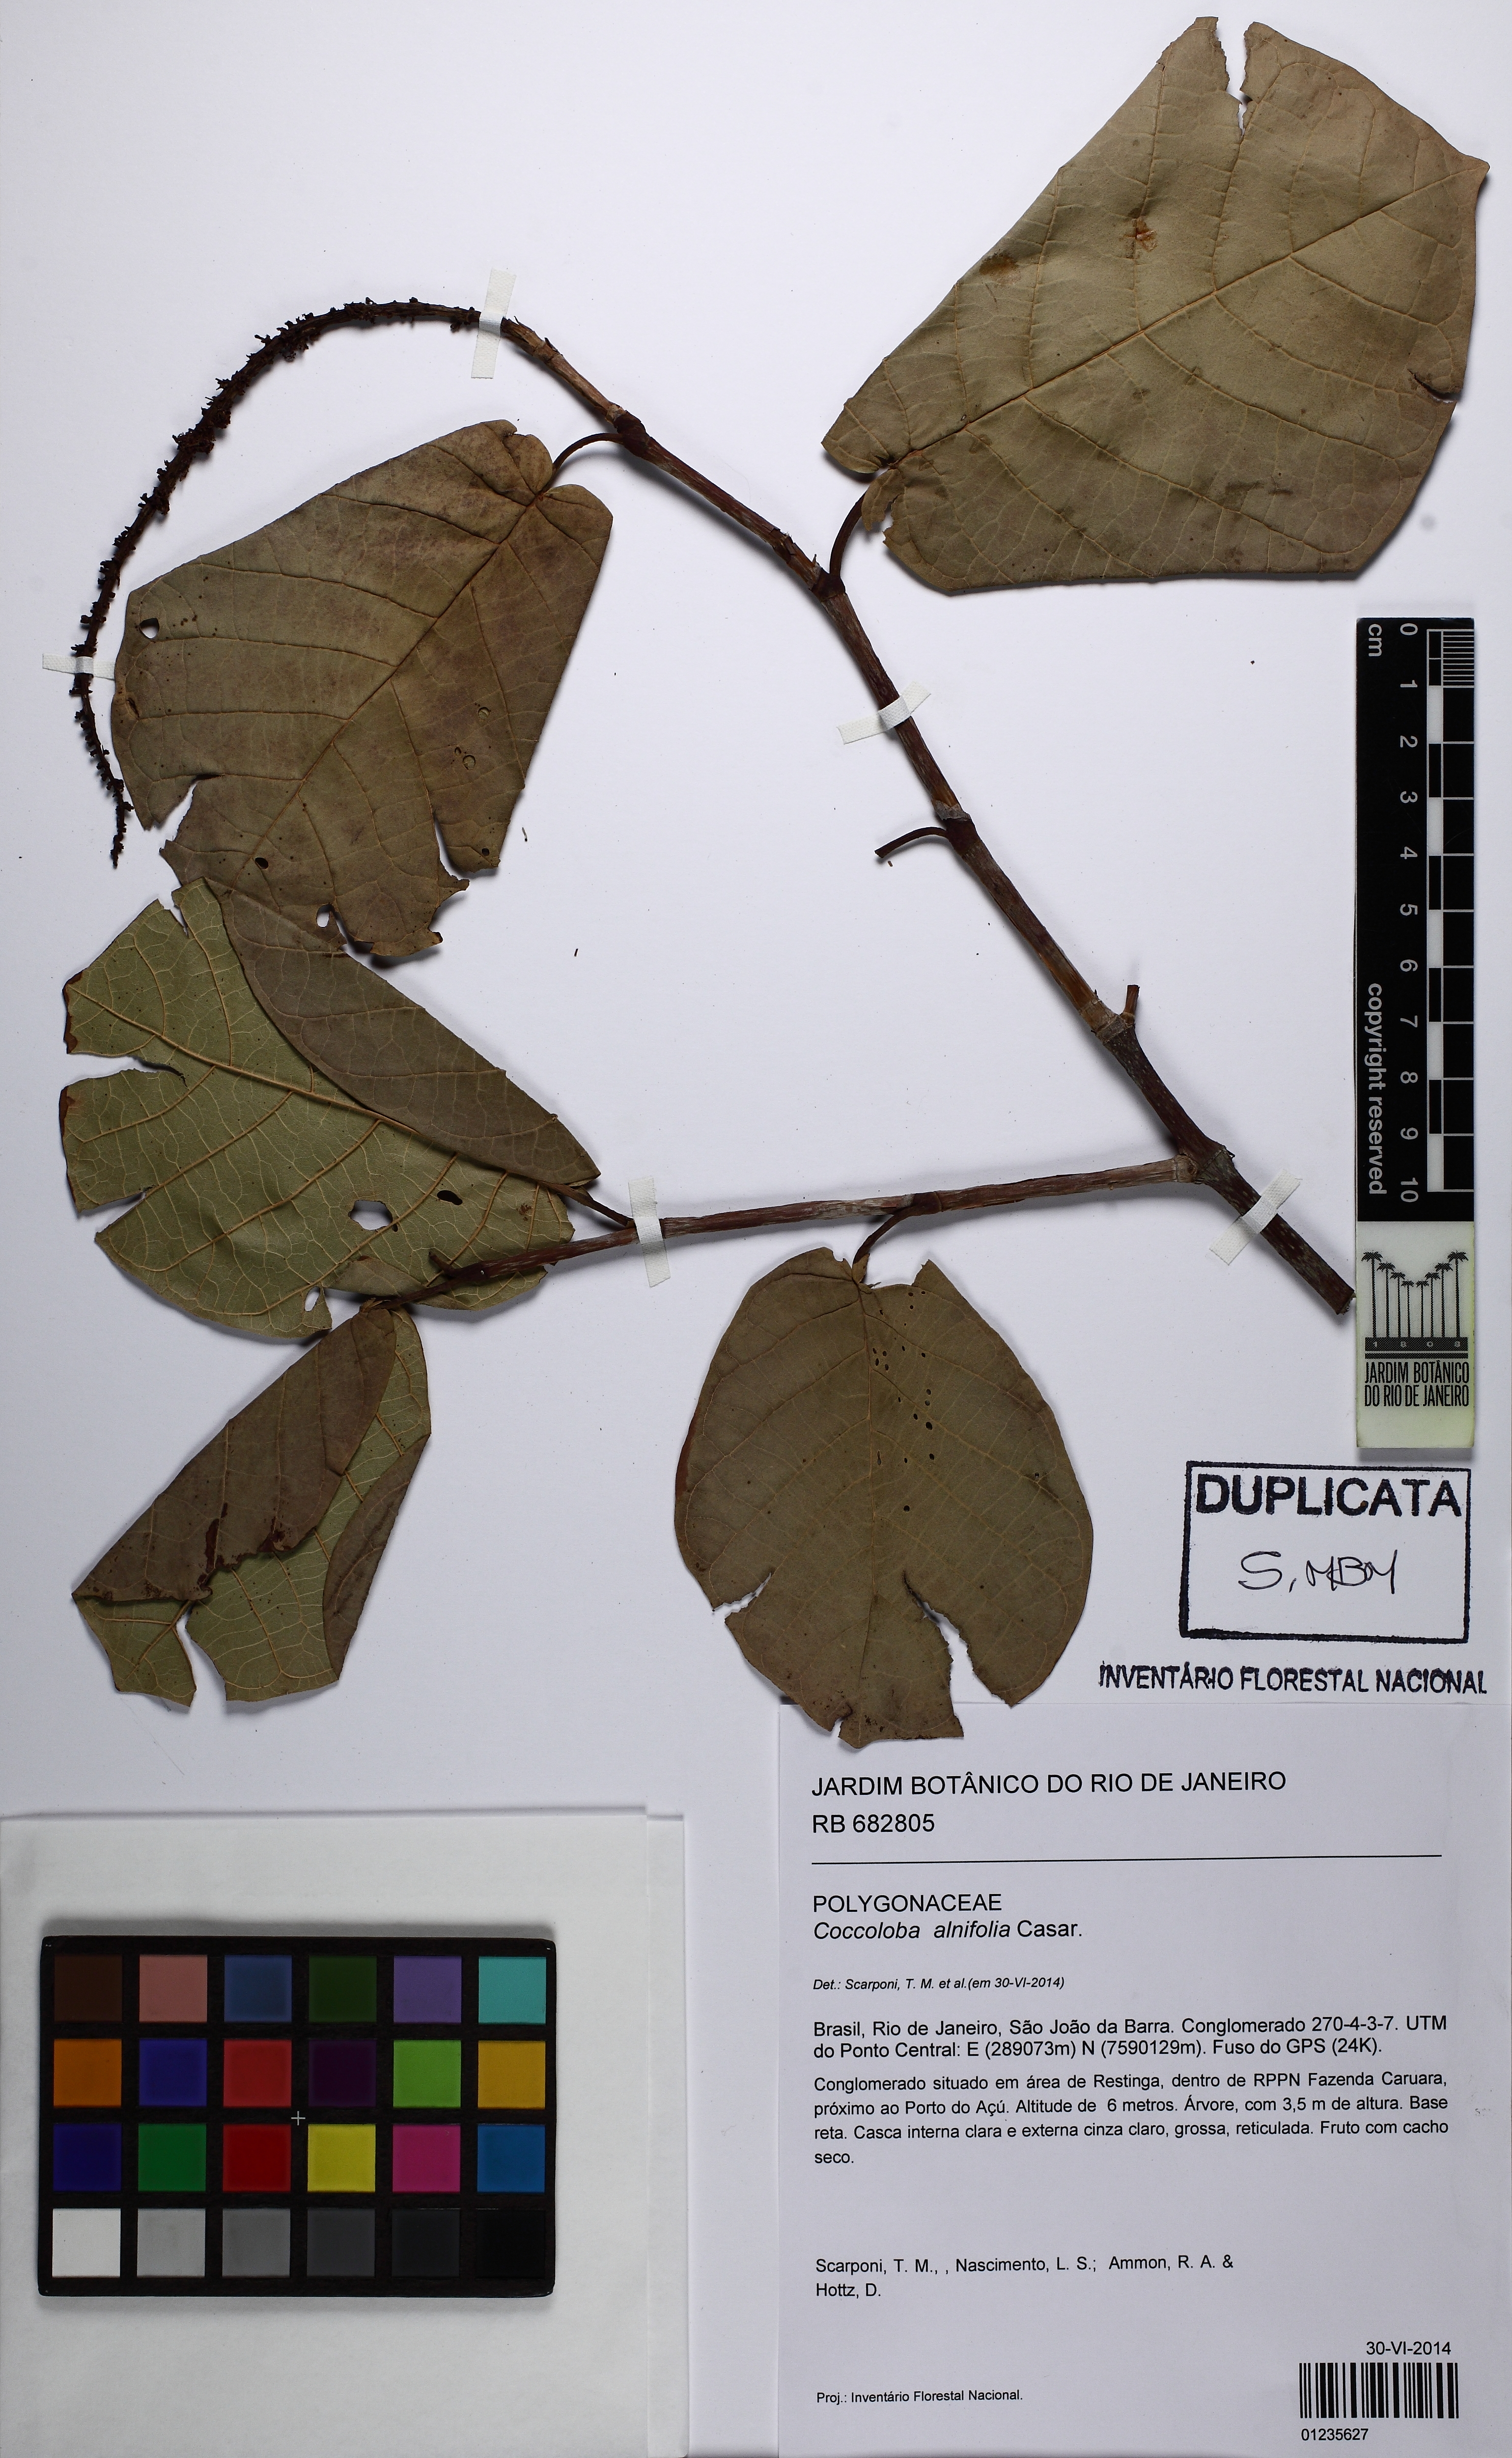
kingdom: Plantae
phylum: Tracheophyta
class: Magnoliopsida
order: Caryophyllales
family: Polygonaceae
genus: Coccoloba
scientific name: Coccoloba alnifolia
